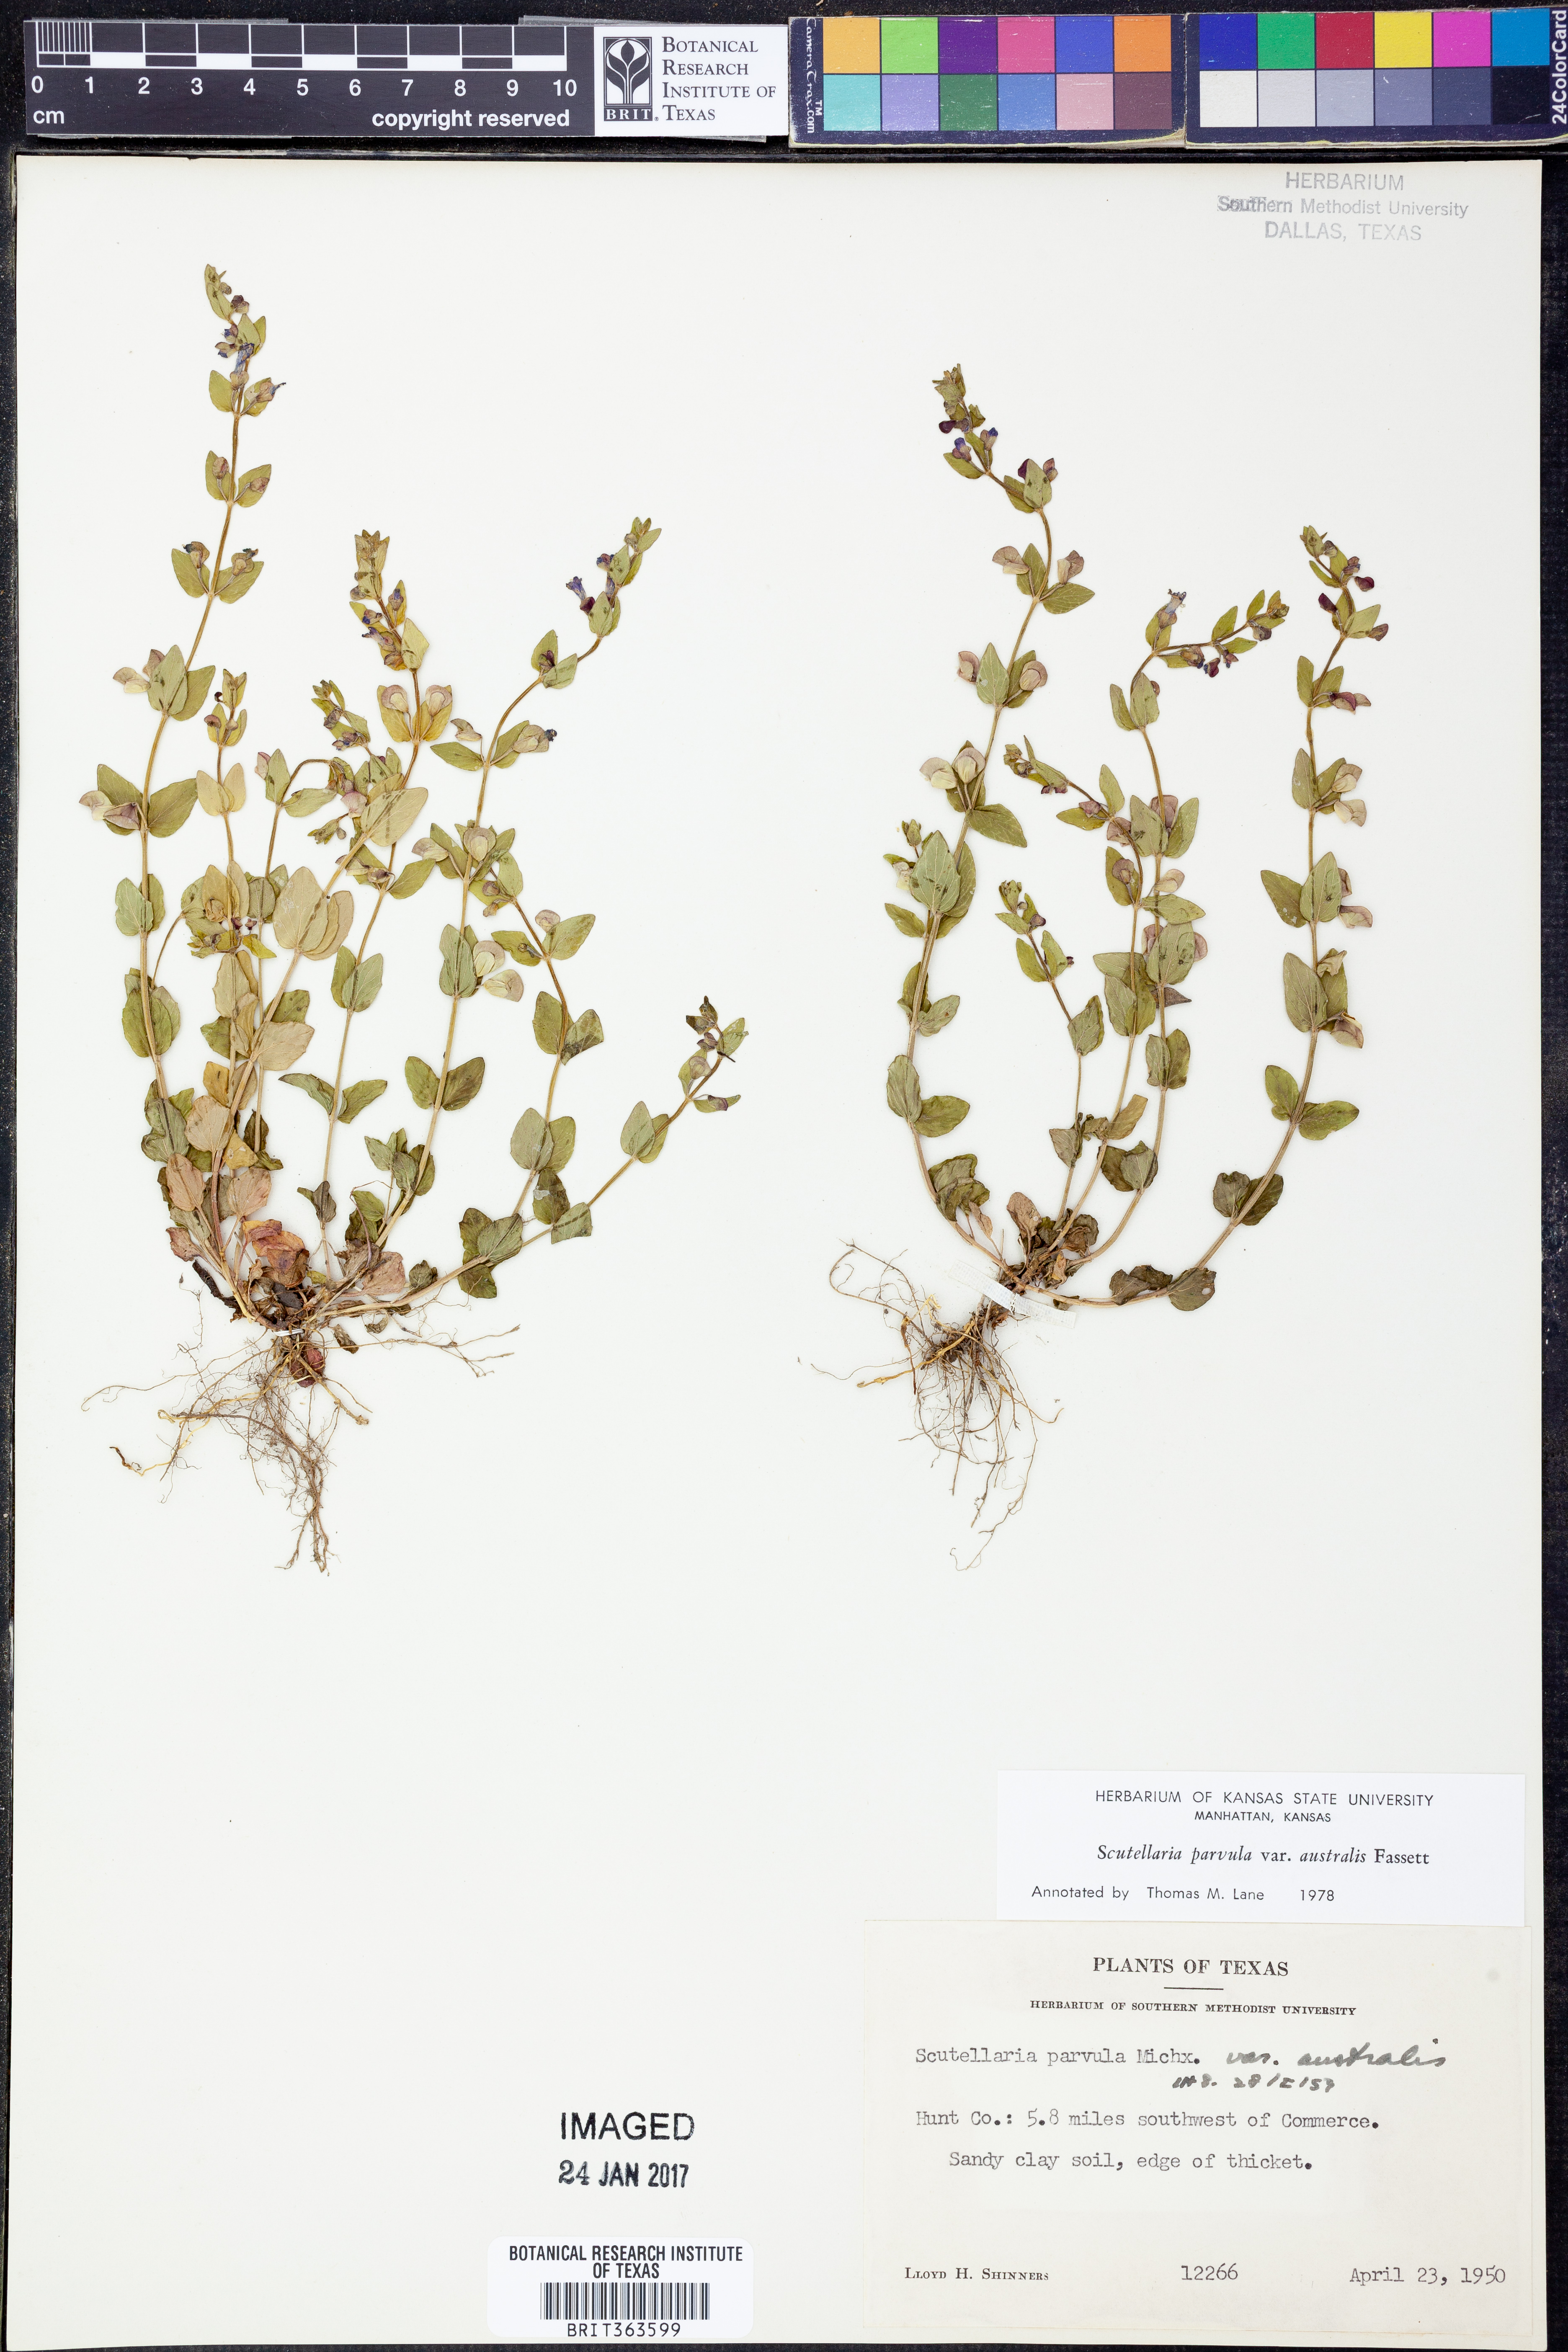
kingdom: Plantae
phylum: Tracheophyta
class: Magnoliopsida
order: Lamiales
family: Lamiaceae
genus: Scutellaria
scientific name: Scutellaria parvula
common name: Little scullcap
